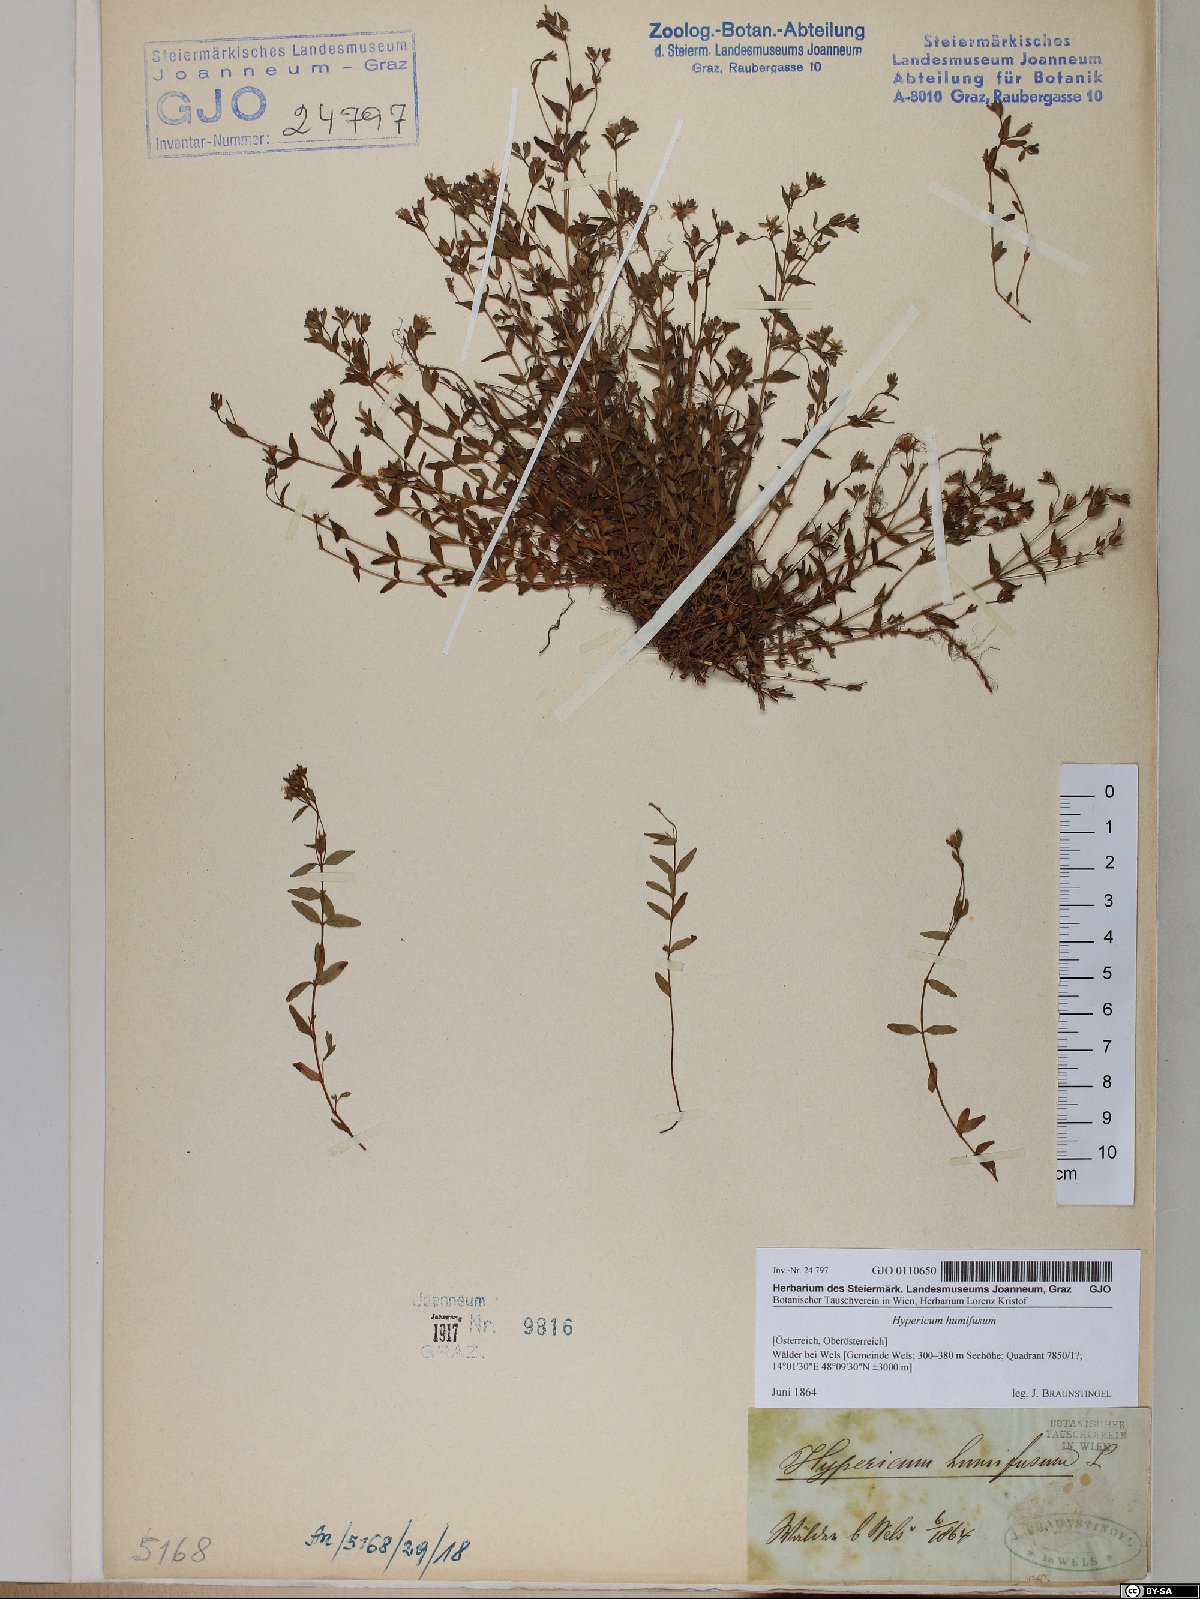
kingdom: Plantae
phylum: Tracheophyta
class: Magnoliopsida
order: Malpighiales
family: Hypericaceae
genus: Hypericum
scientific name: Hypericum humifusum
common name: Trailing st. john's-wort
